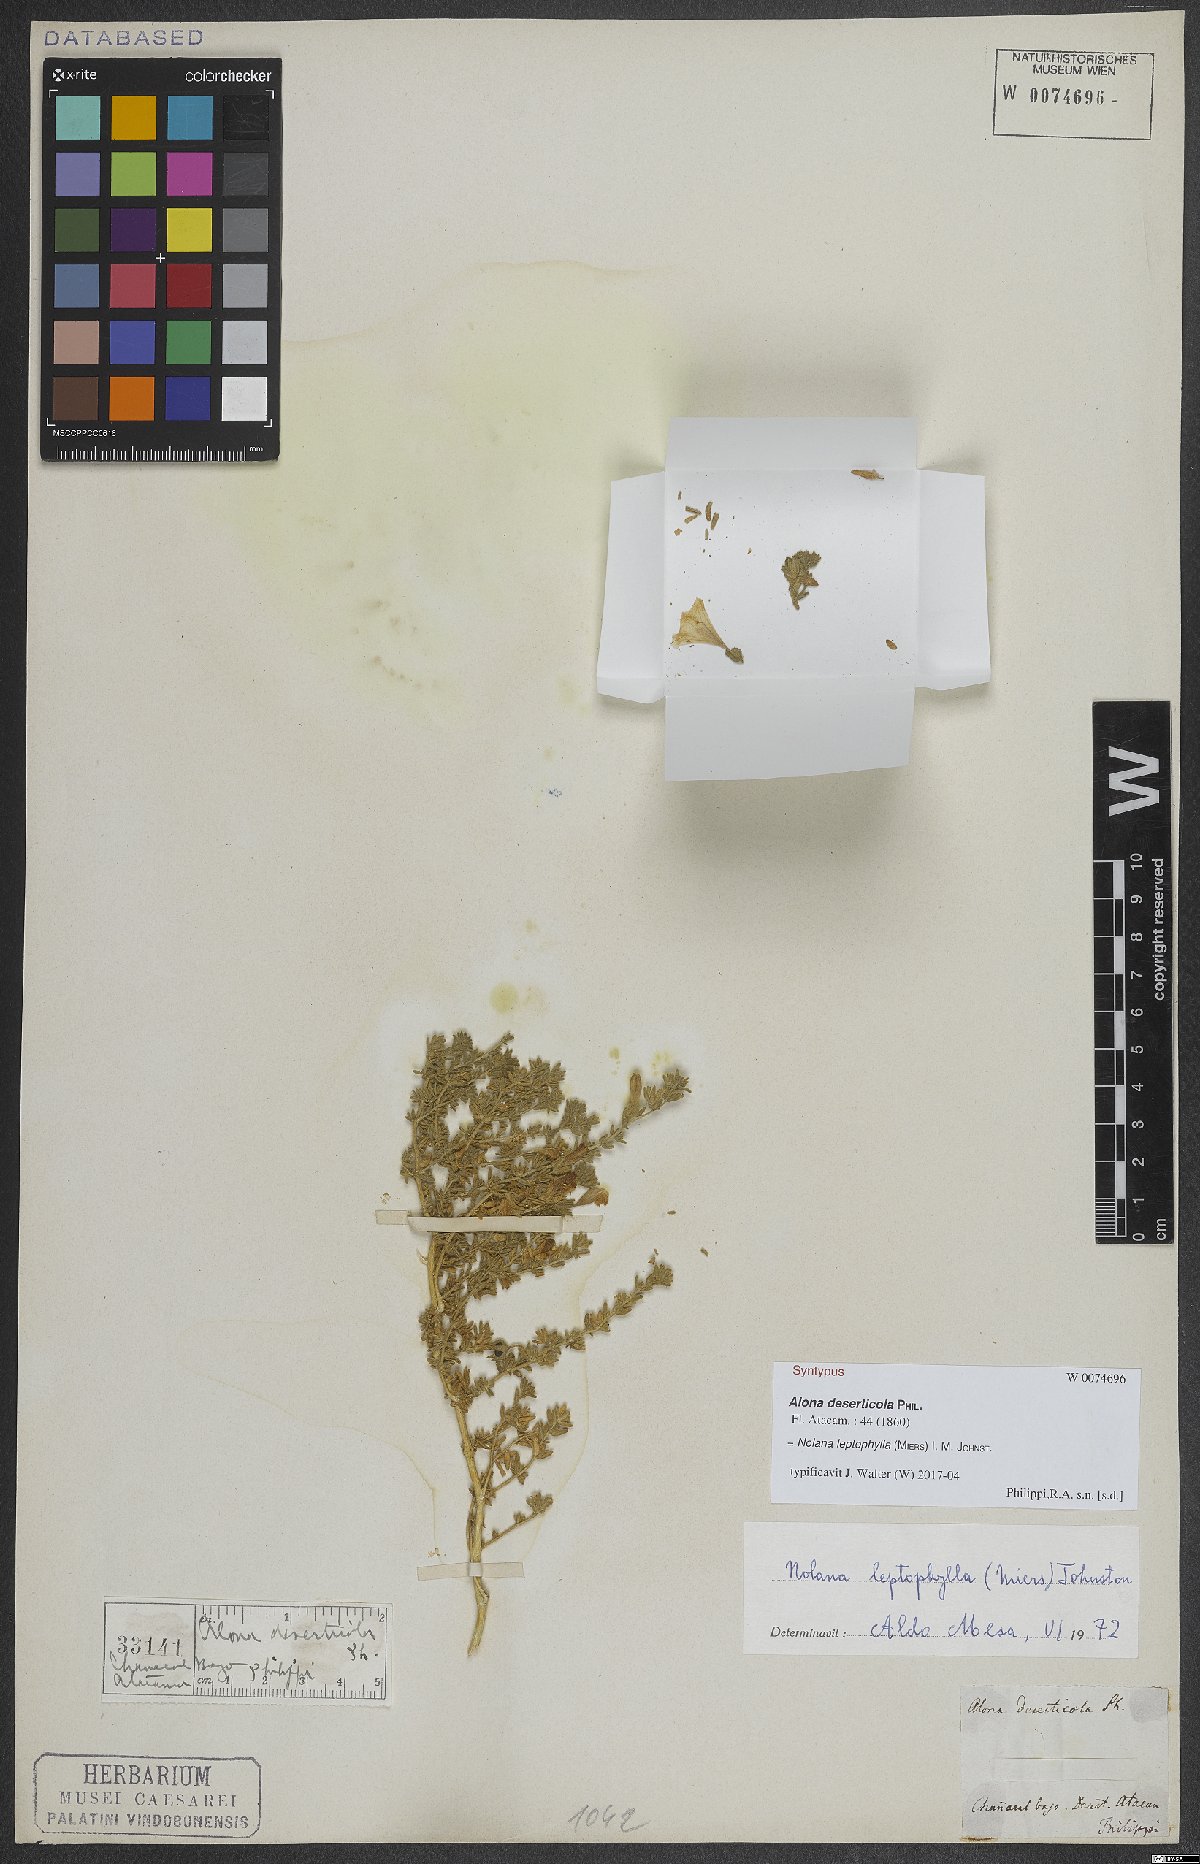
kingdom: Plantae
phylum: Tracheophyta
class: Magnoliopsida
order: Solanales
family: Solanaceae
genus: Nolana
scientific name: Nolana leptophylla
